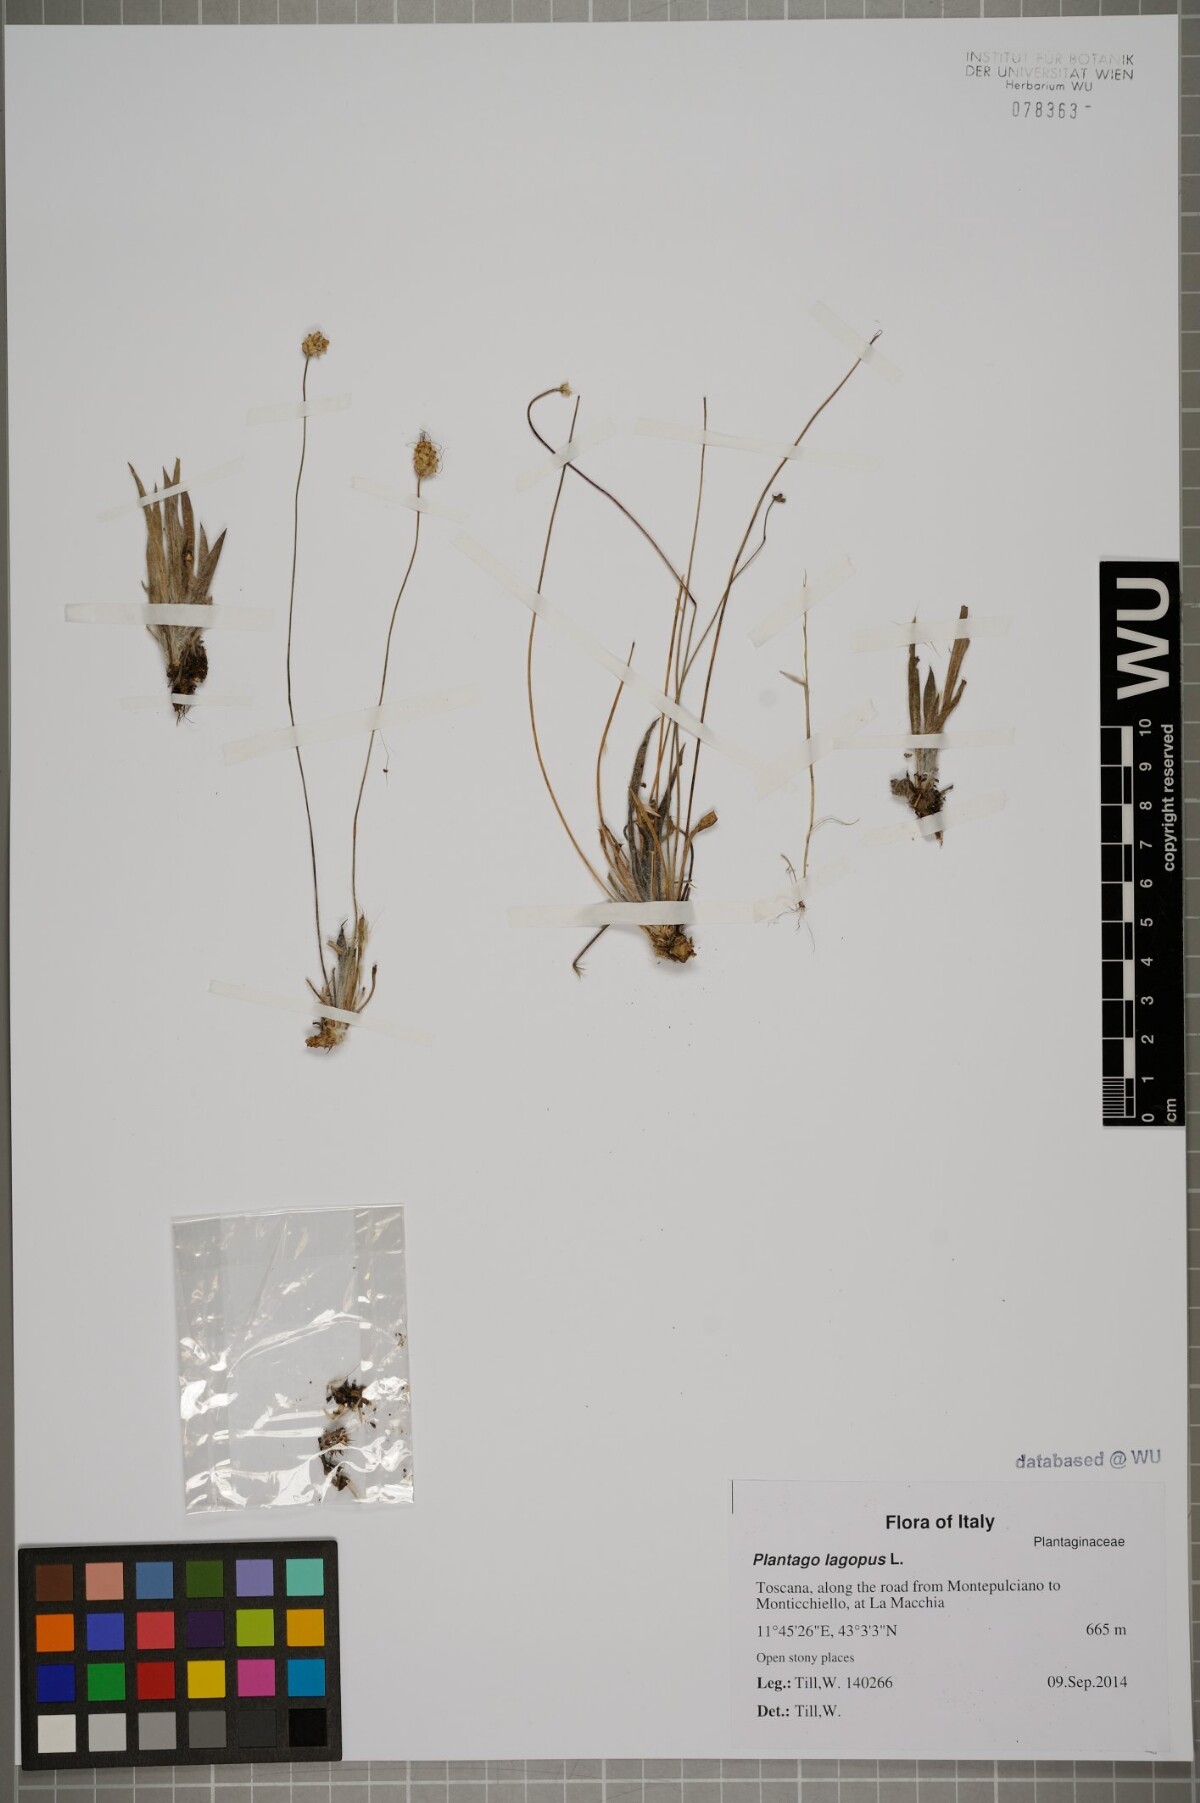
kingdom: Plantae
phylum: Tracheophyta
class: Magnoliopsida
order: Lamiales
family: Plantaginaceae
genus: Plantago
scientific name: Plantago lagopus
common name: Hare-foot plantain
